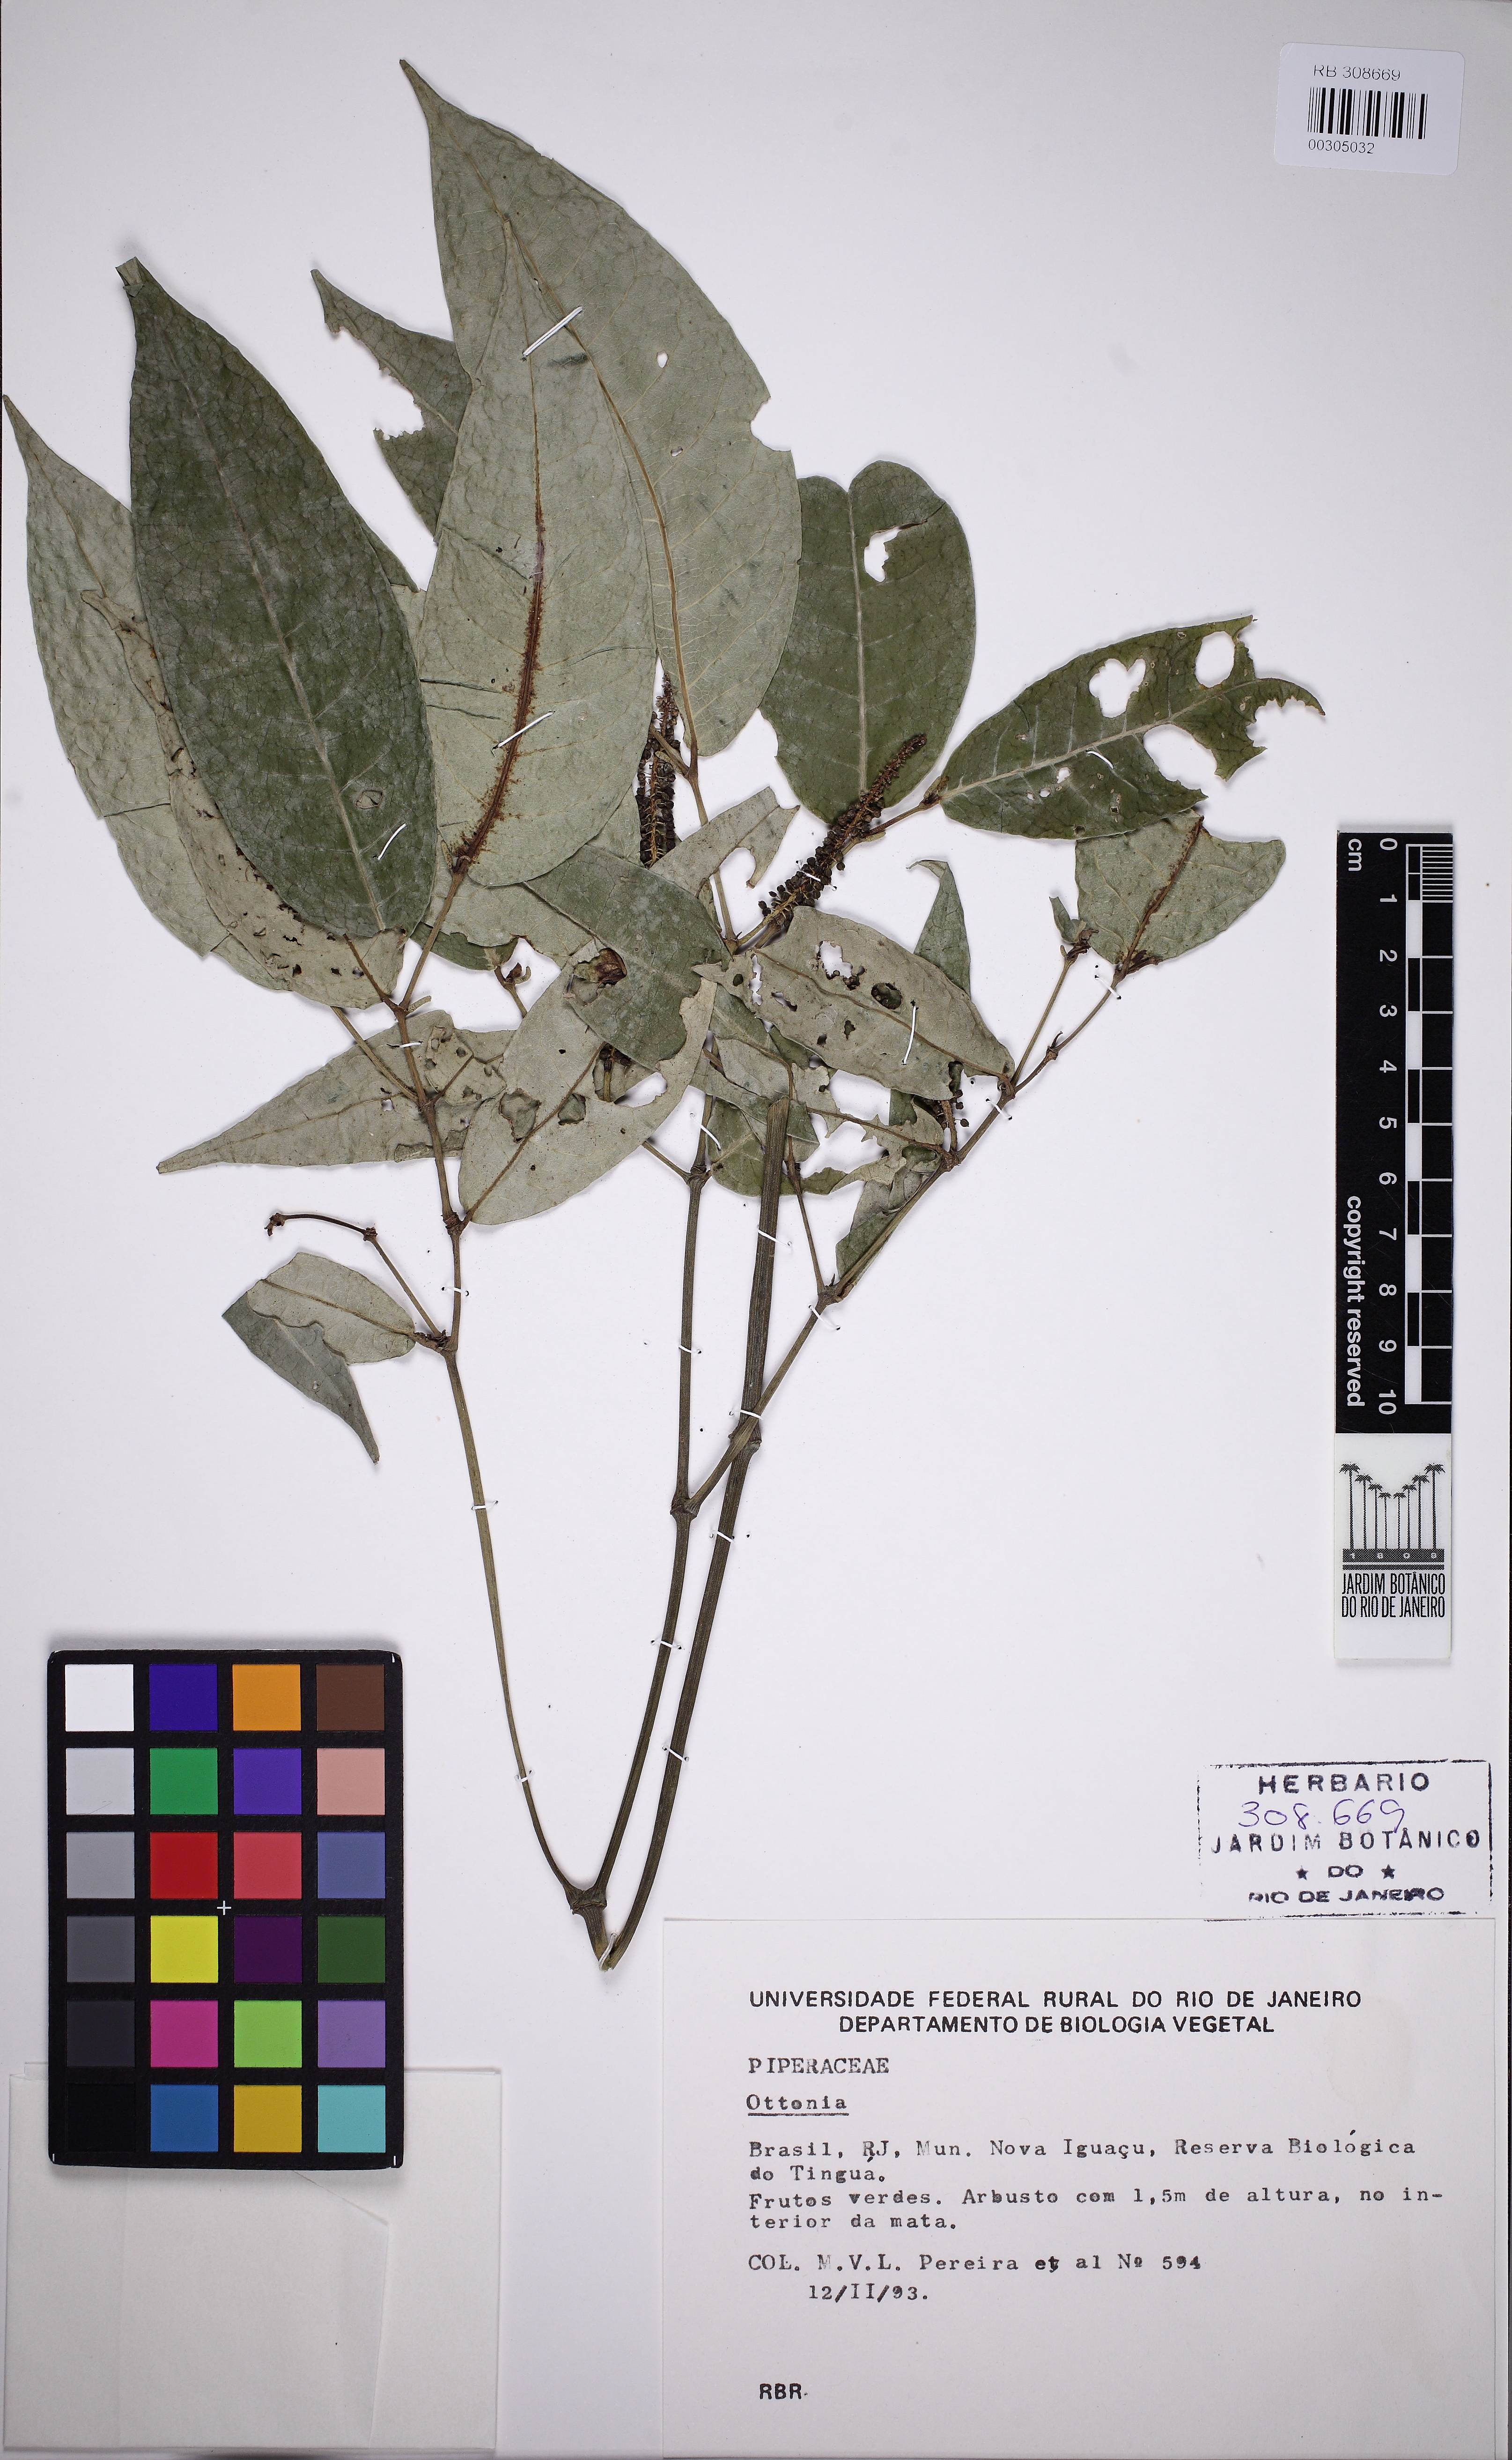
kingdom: Plantae
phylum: Tracheophyta
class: Magnoliopsida
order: Piperales
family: Piperaceae
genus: Piper
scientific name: Piper anisum
